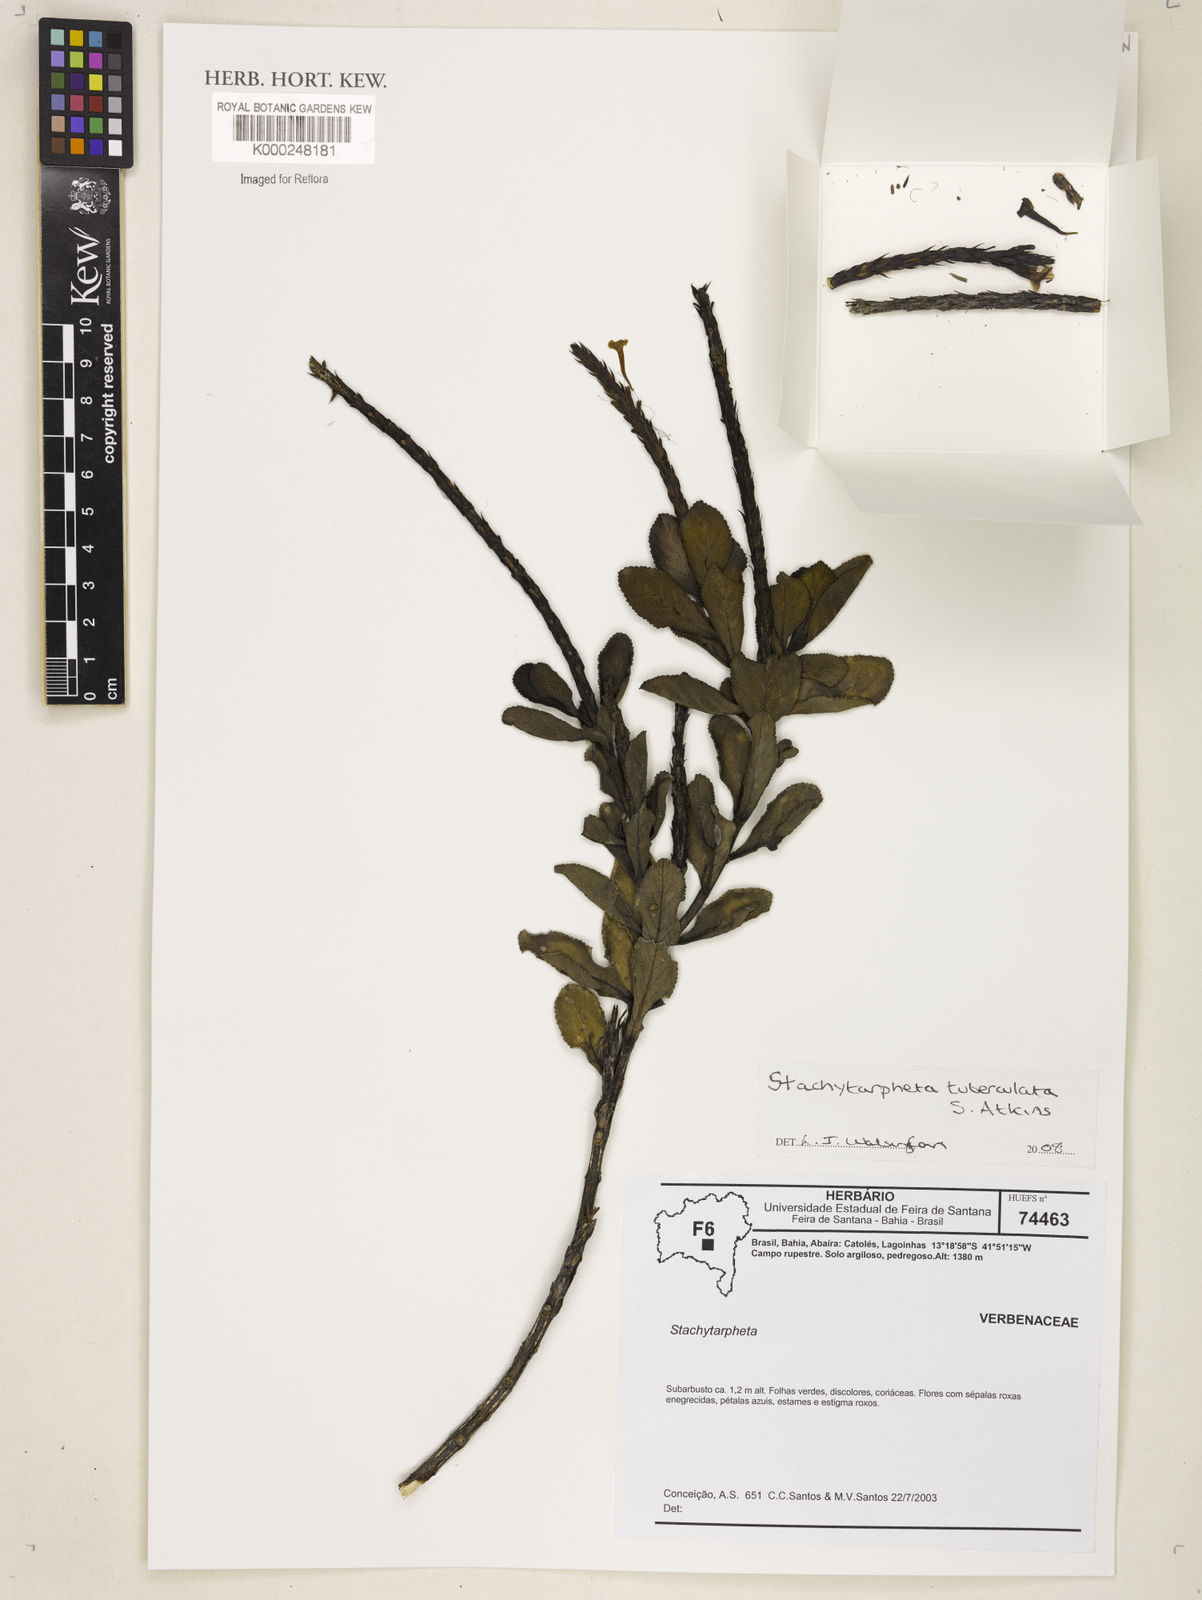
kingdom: Plantae
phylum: Tracheophyta
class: Magnoliopsida
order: Lamiales
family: Verbenaceae
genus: Stachytarpheta
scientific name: Stachytarpheta tuberculata
